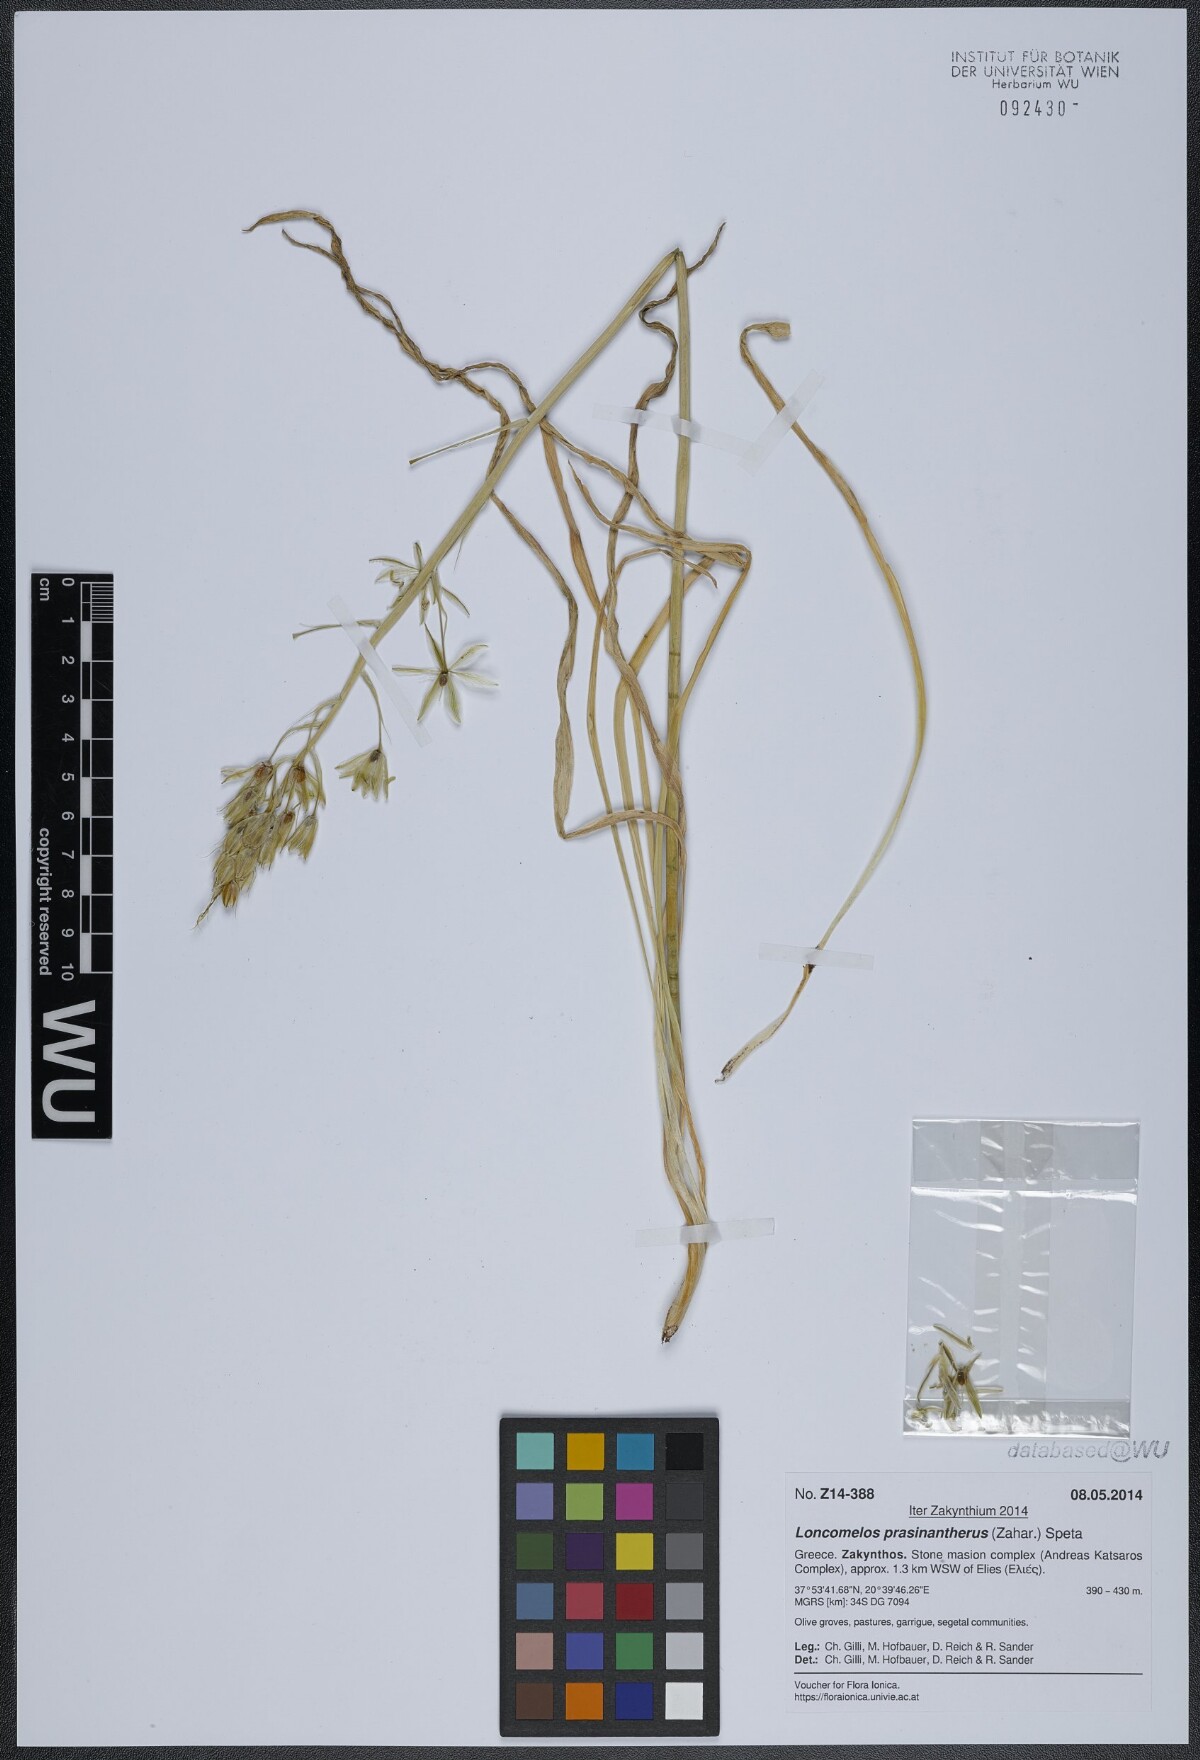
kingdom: Plantae
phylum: Tracheophyta
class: Liliopsida
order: Asparagales
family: Asparagaceae
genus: Ornithogalum
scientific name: Ornithogalum prasinantherum
